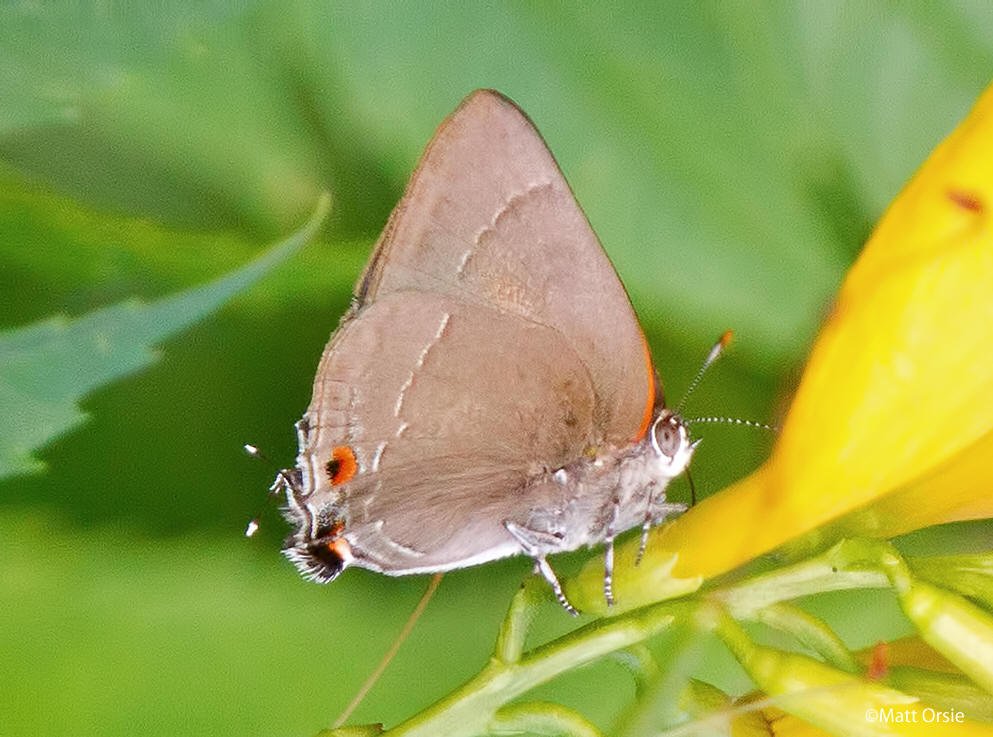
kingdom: Animalia
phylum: Arthropoda
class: Insecta
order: Lepidoptera
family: Lycaenidae
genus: Thecla
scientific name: Thecla marius
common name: Marius Hairstreak
